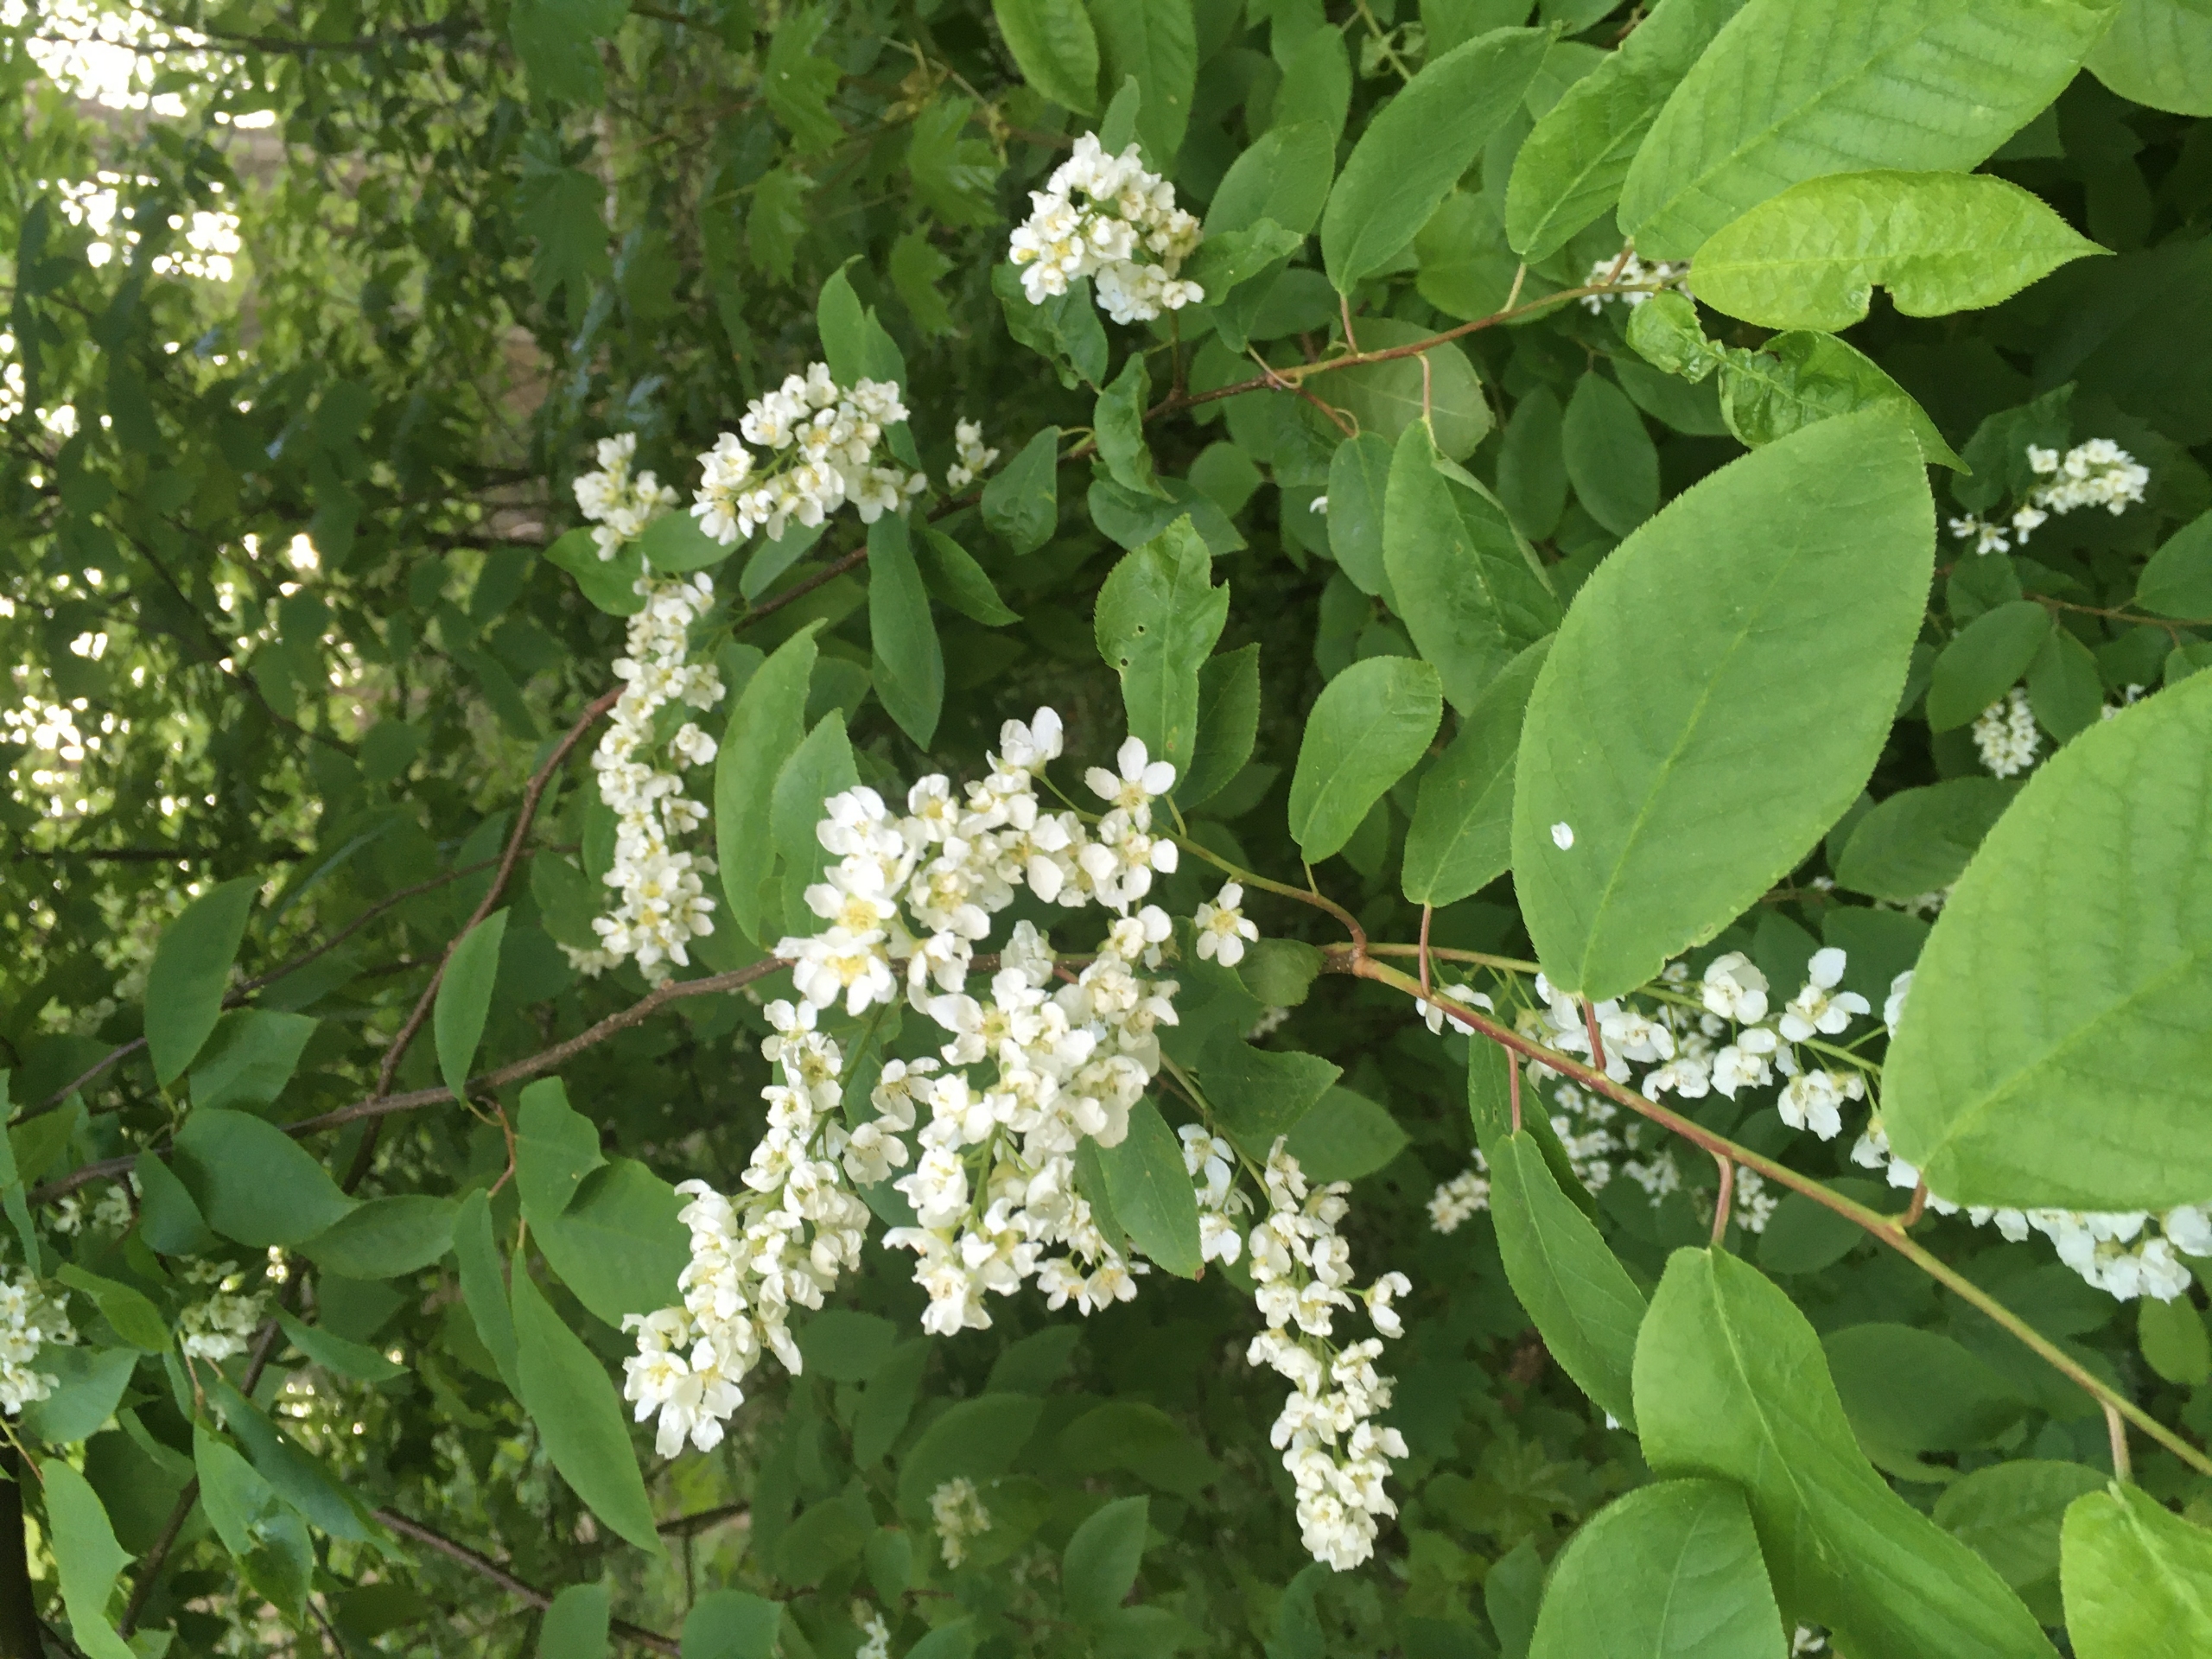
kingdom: Plantae
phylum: Tracheophyta
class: Magnoliopsida
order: Rosales
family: Rosaceae
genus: Prunus
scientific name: Prunus padus
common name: Almindelig hæg
